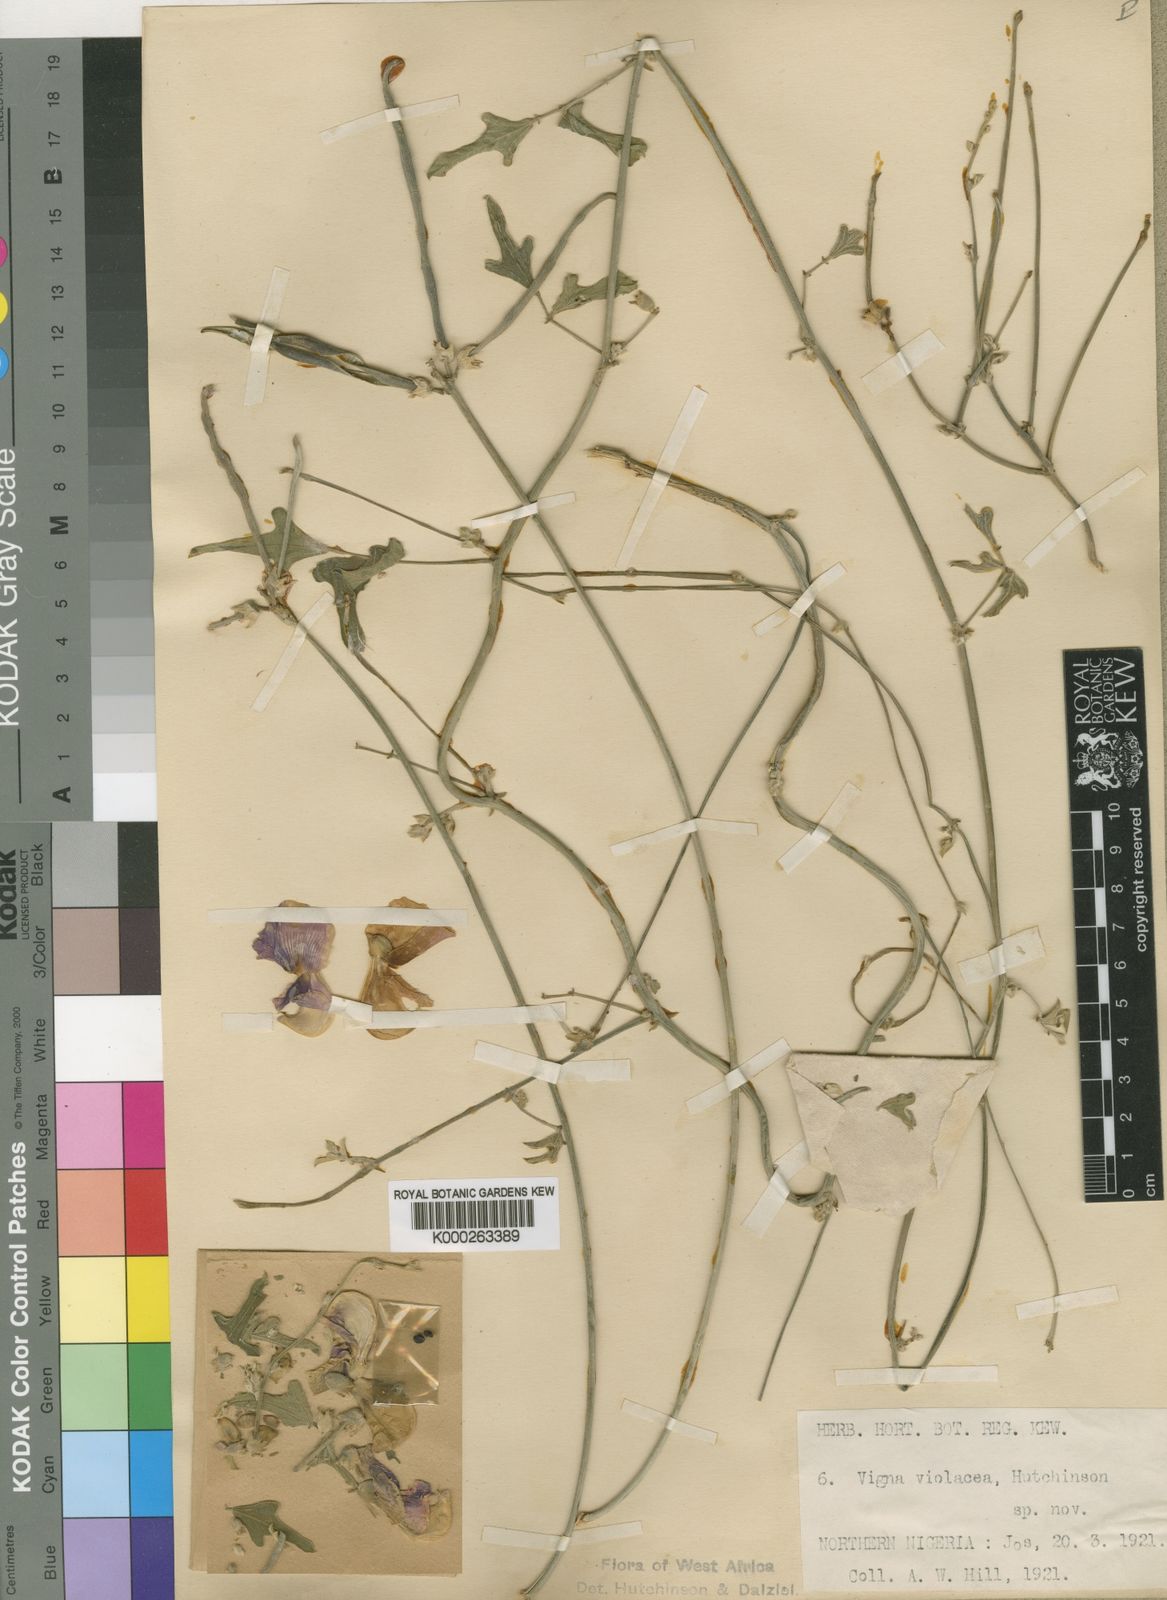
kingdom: Plantae
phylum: Tracheophyta
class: Magnoliopsida
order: Fabales
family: Fabaceae
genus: Vigna
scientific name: Vigna frutescens
